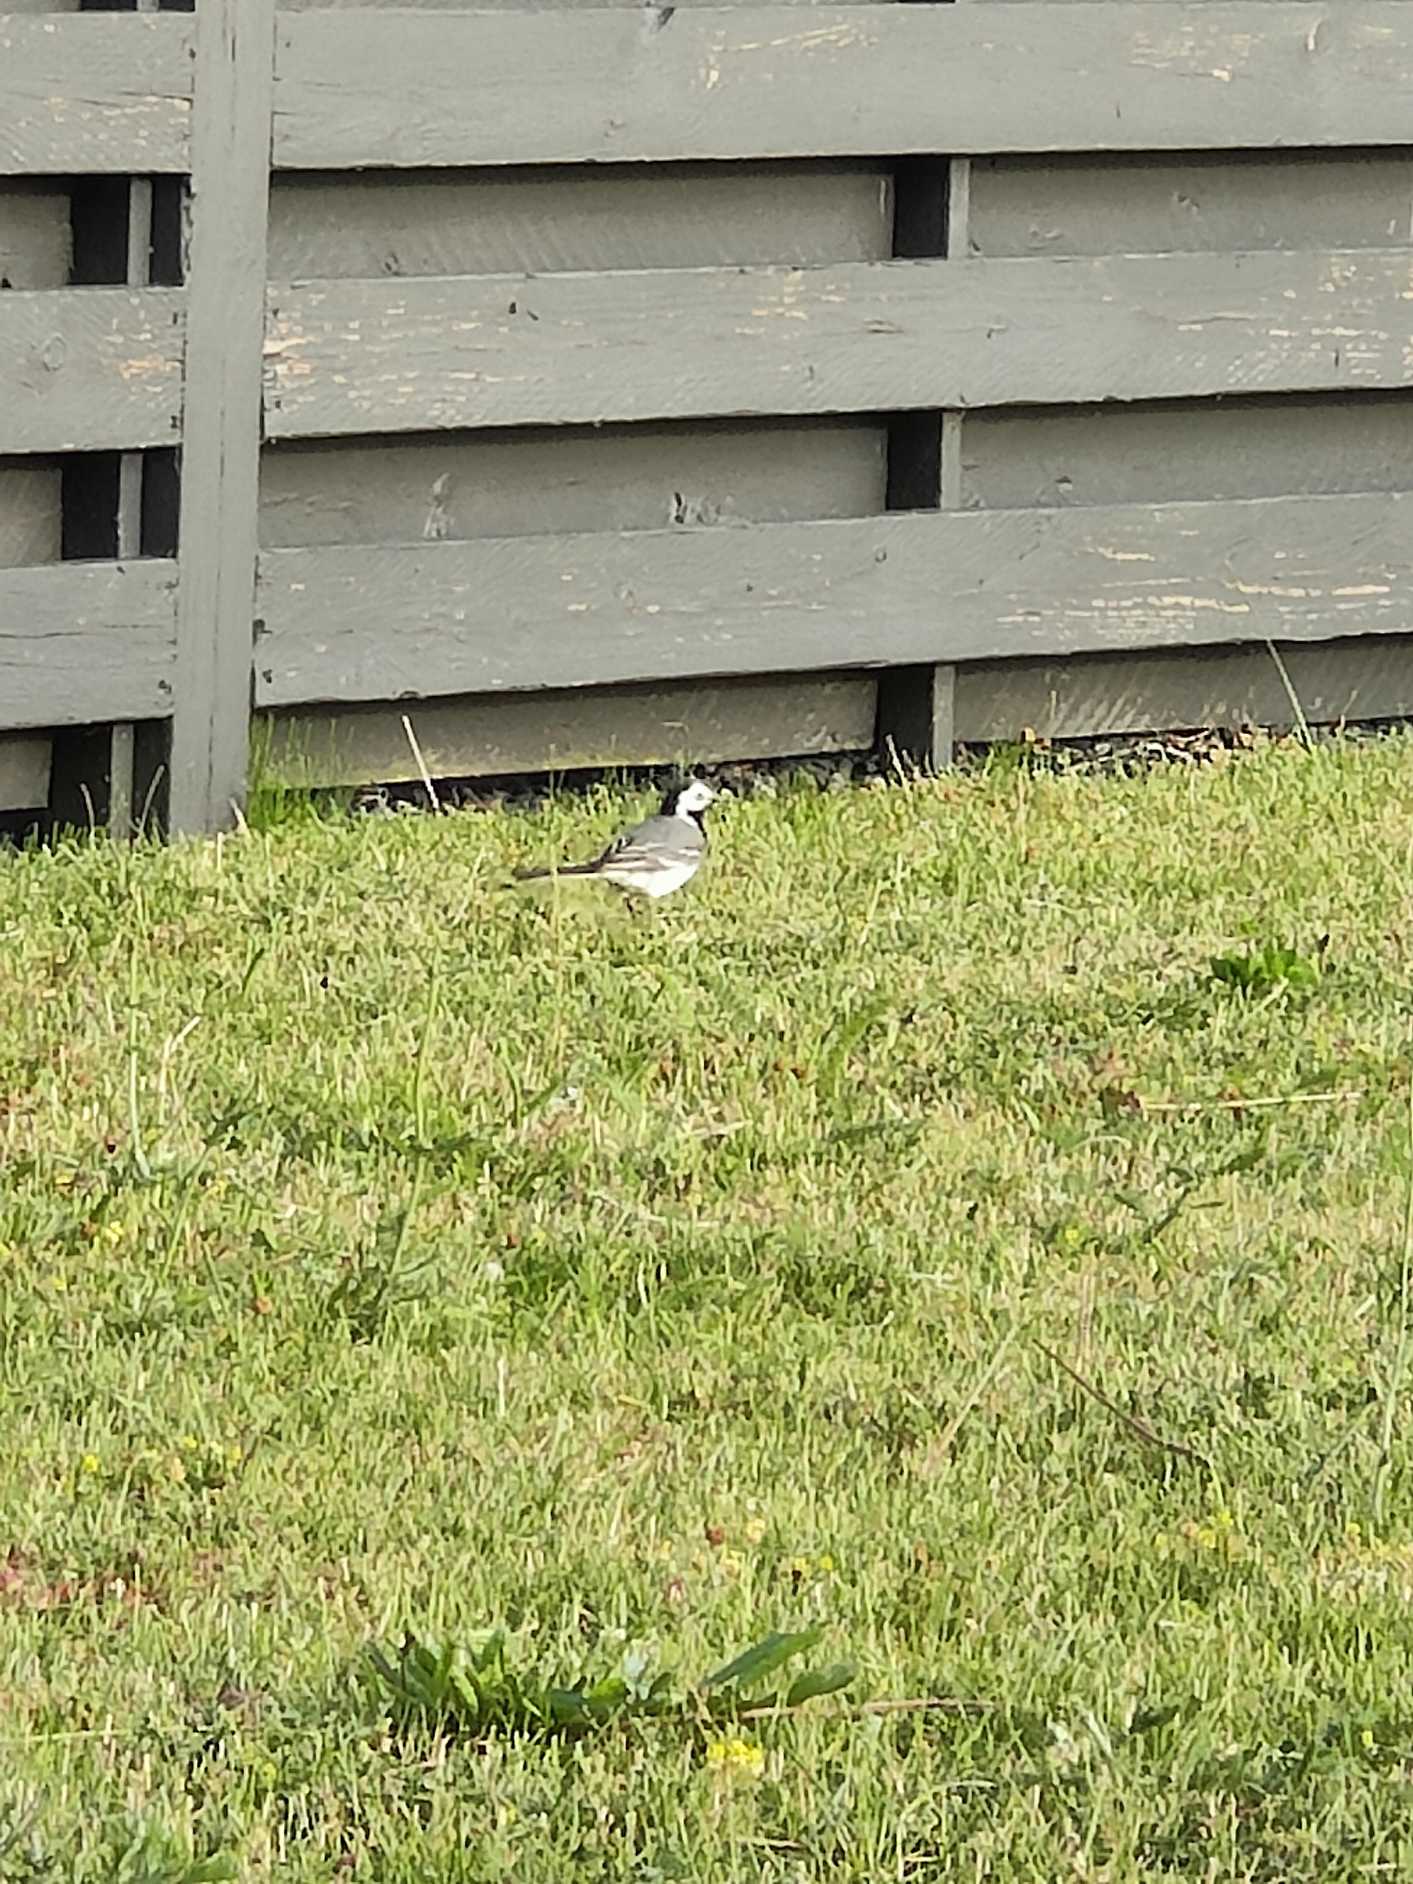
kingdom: Animalia
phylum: Chordata
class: Aves
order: Passeriformes
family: Motacillidae
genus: Motacilla
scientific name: Motacilla alba
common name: Hvid vipstjert
